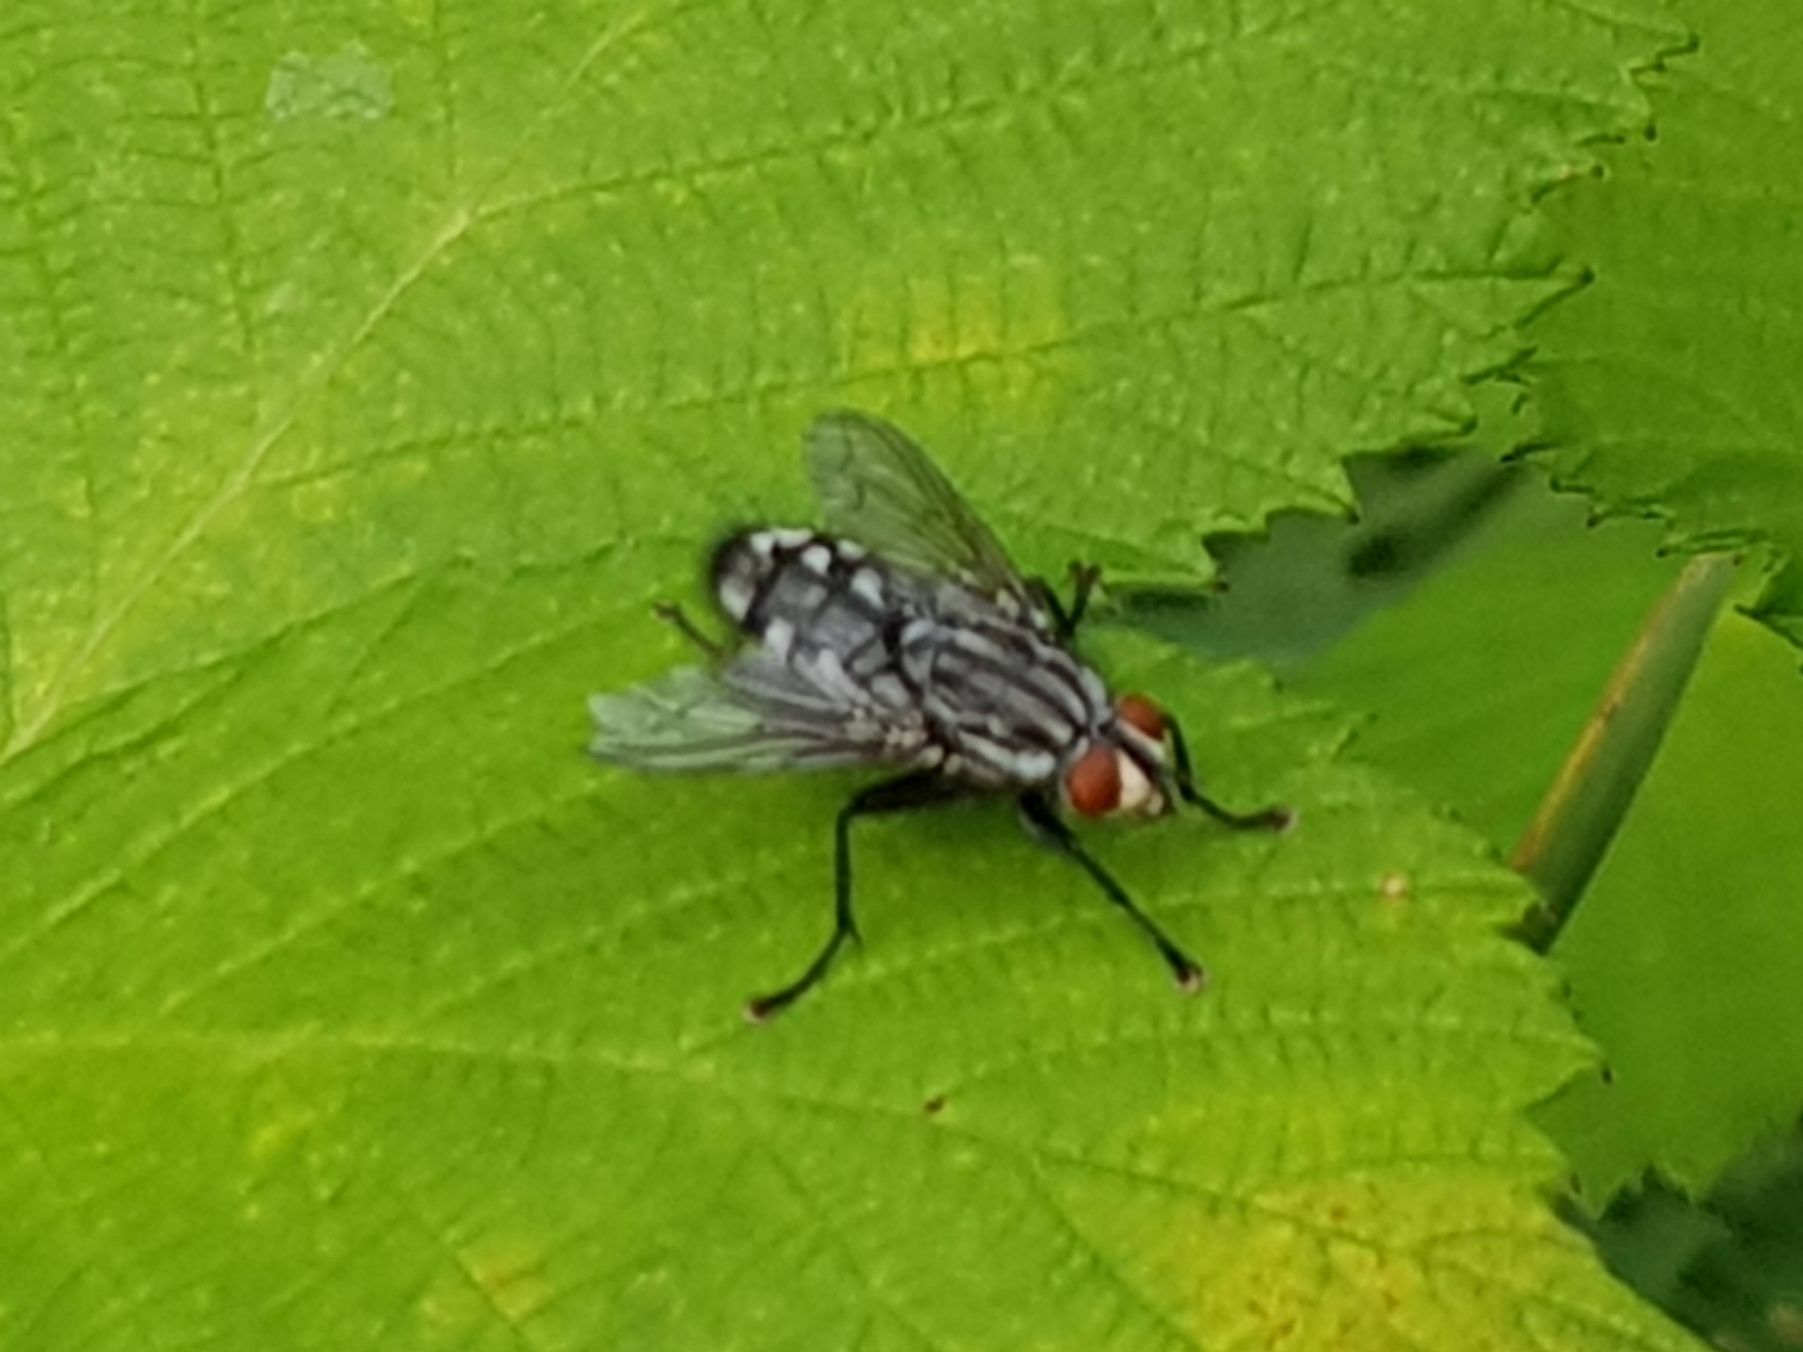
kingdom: Animalia
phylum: Arthropoda
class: Insecta
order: Diptera
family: Sarcophagidae
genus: Sarcophaga
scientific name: Sarcophaga
